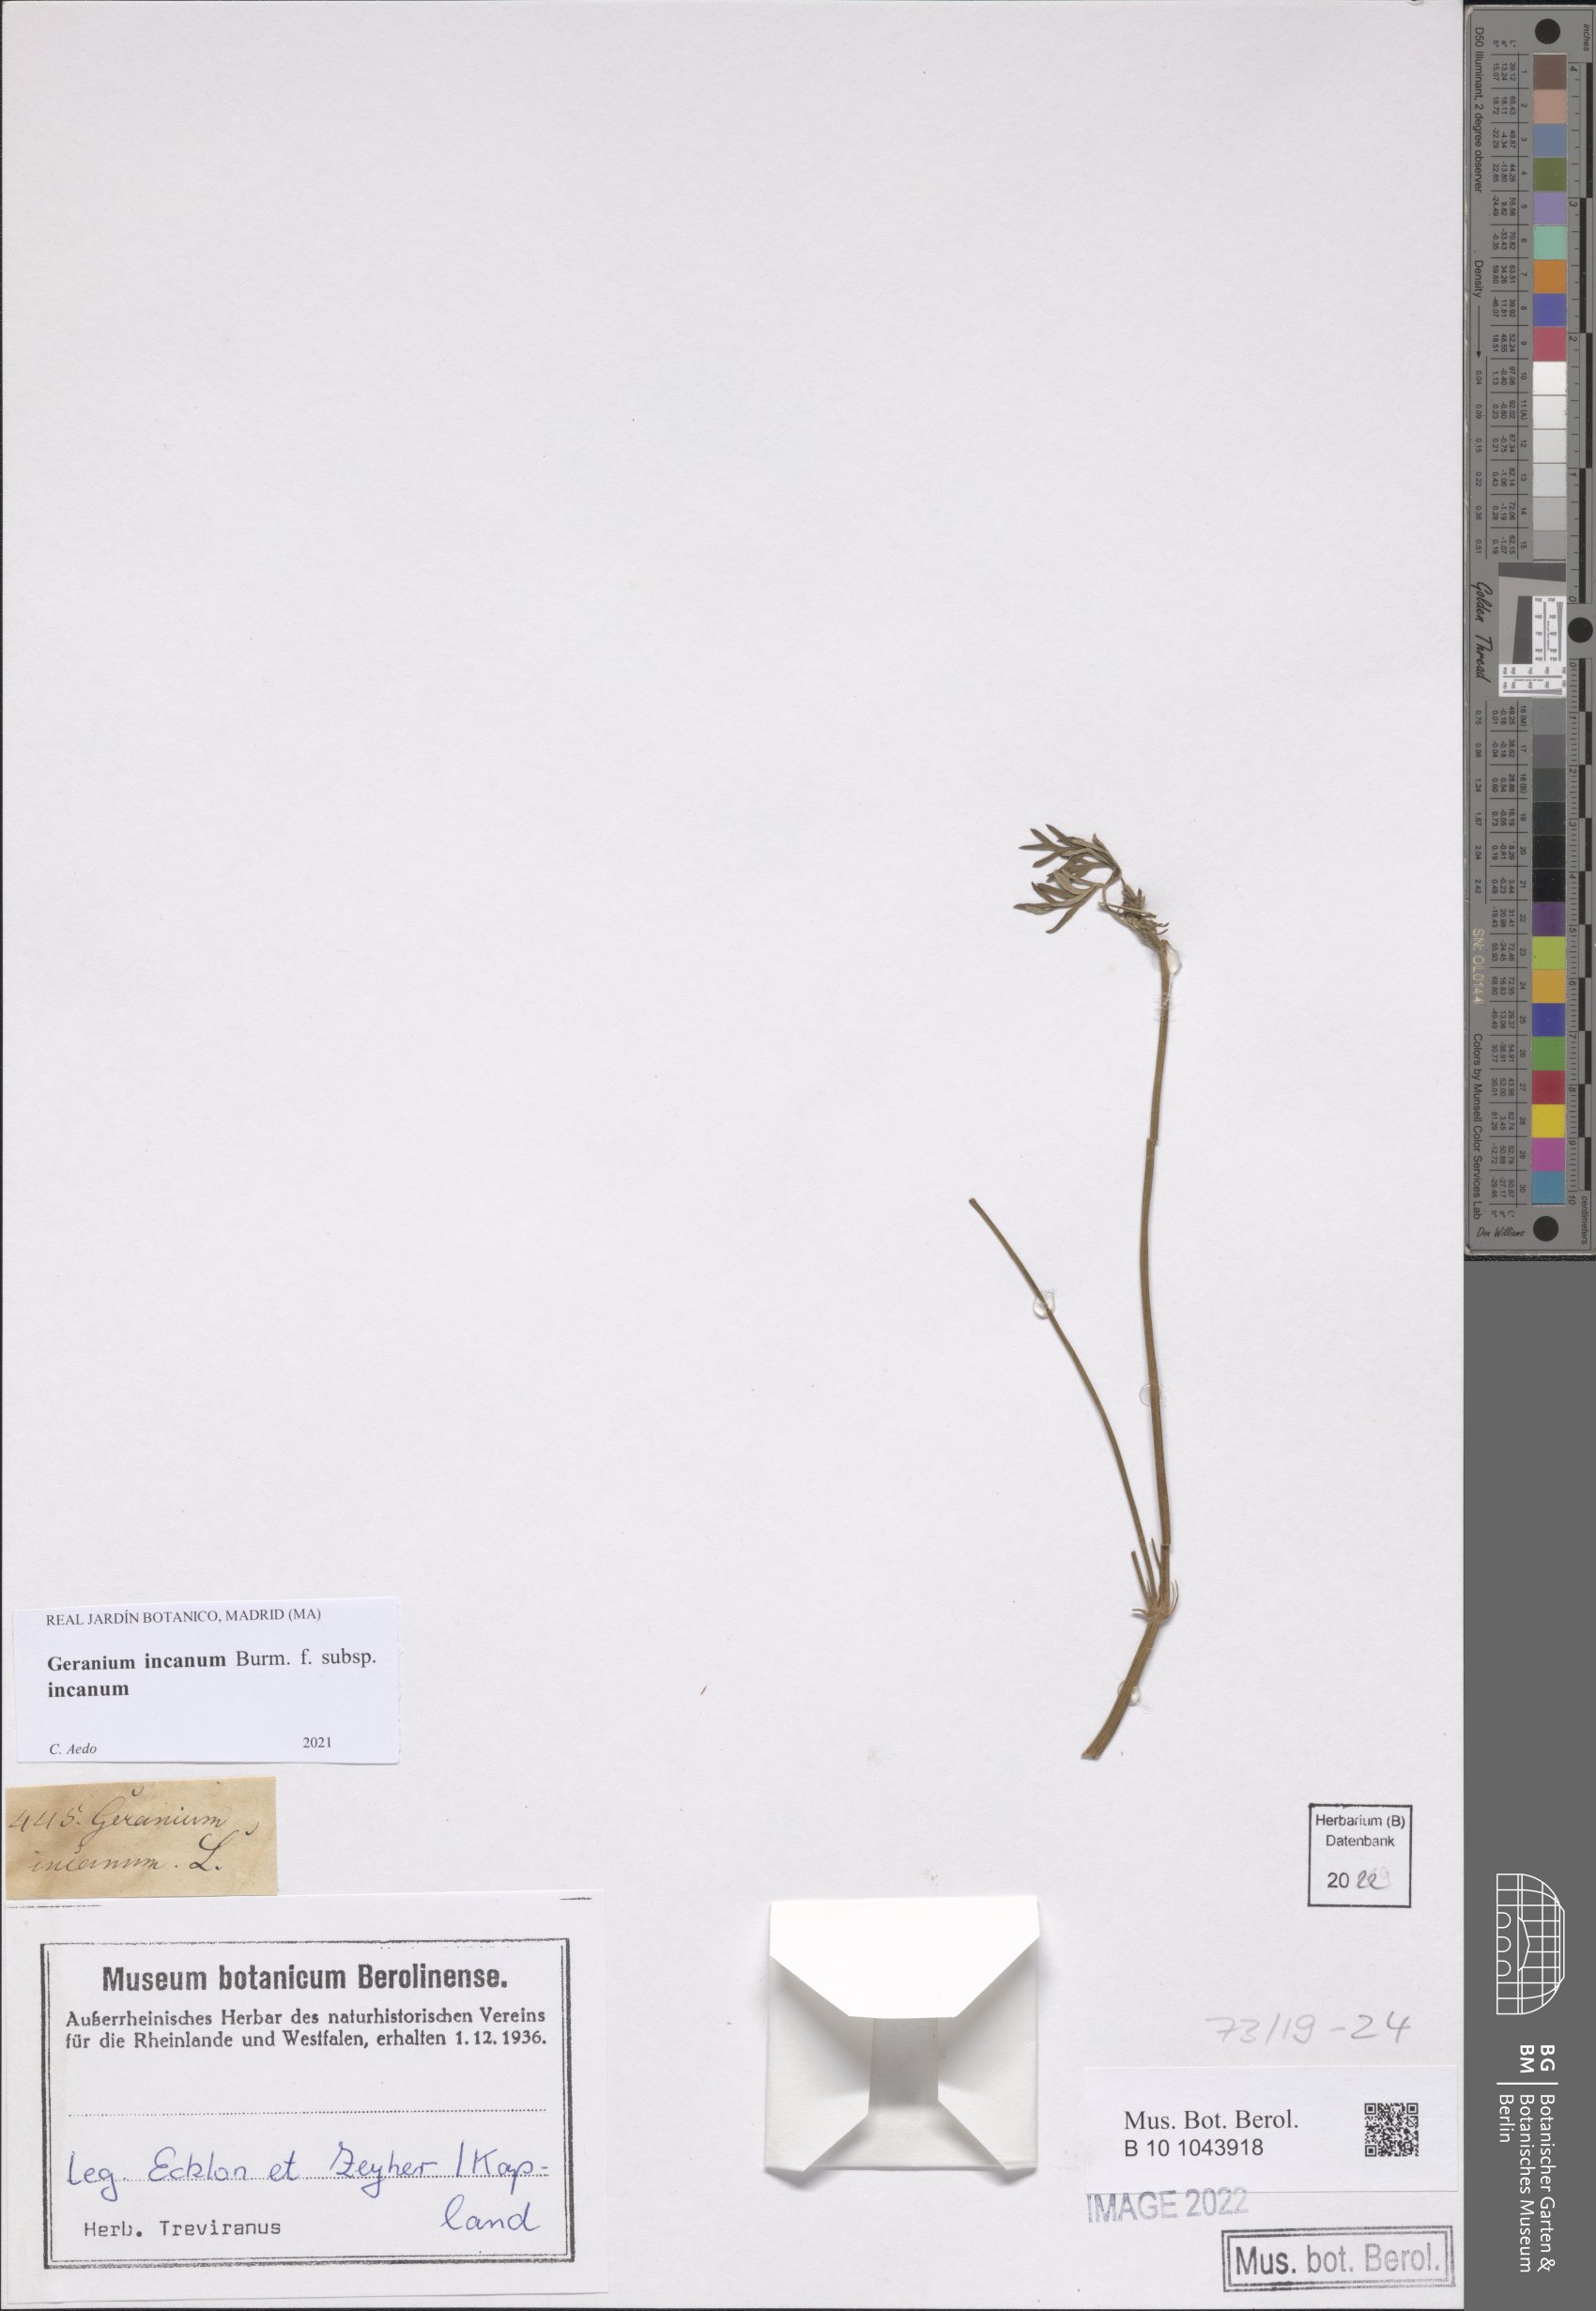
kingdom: Plantae
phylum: Tracheophyta
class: Magnoliopsida
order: Geraniales
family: Geraniaceae
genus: Geranium
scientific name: Geranium incanum
